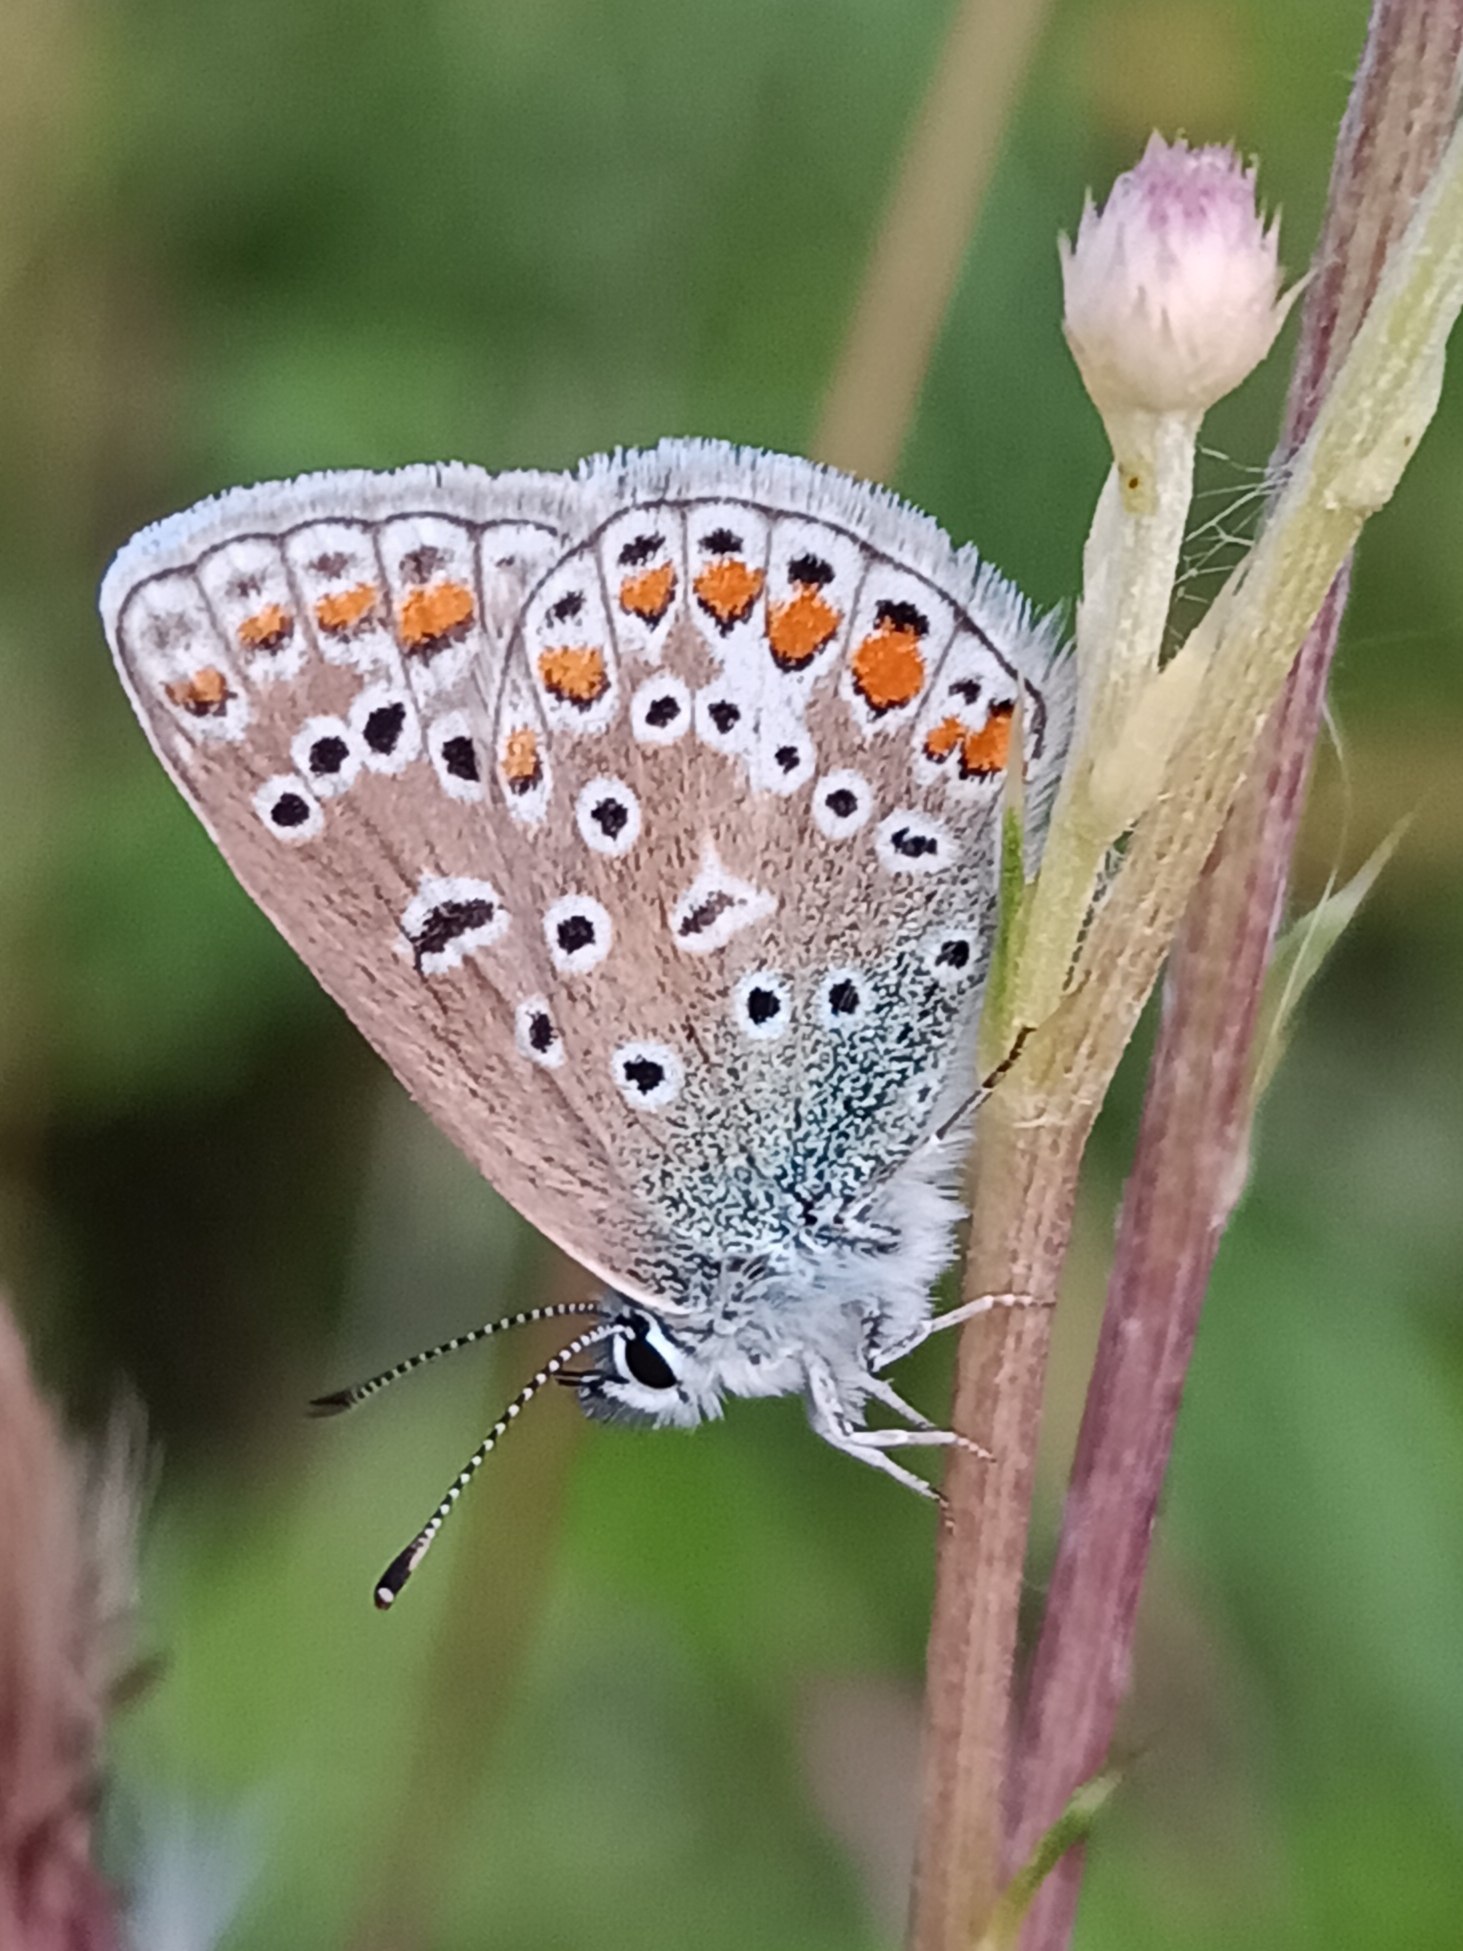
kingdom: Animalia
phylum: Arthropoda
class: Insecta
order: Lepidoptera
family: Lycaenidae
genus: Polyommatus
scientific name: Polyommatus icarus
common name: Almindelig blåfugl
